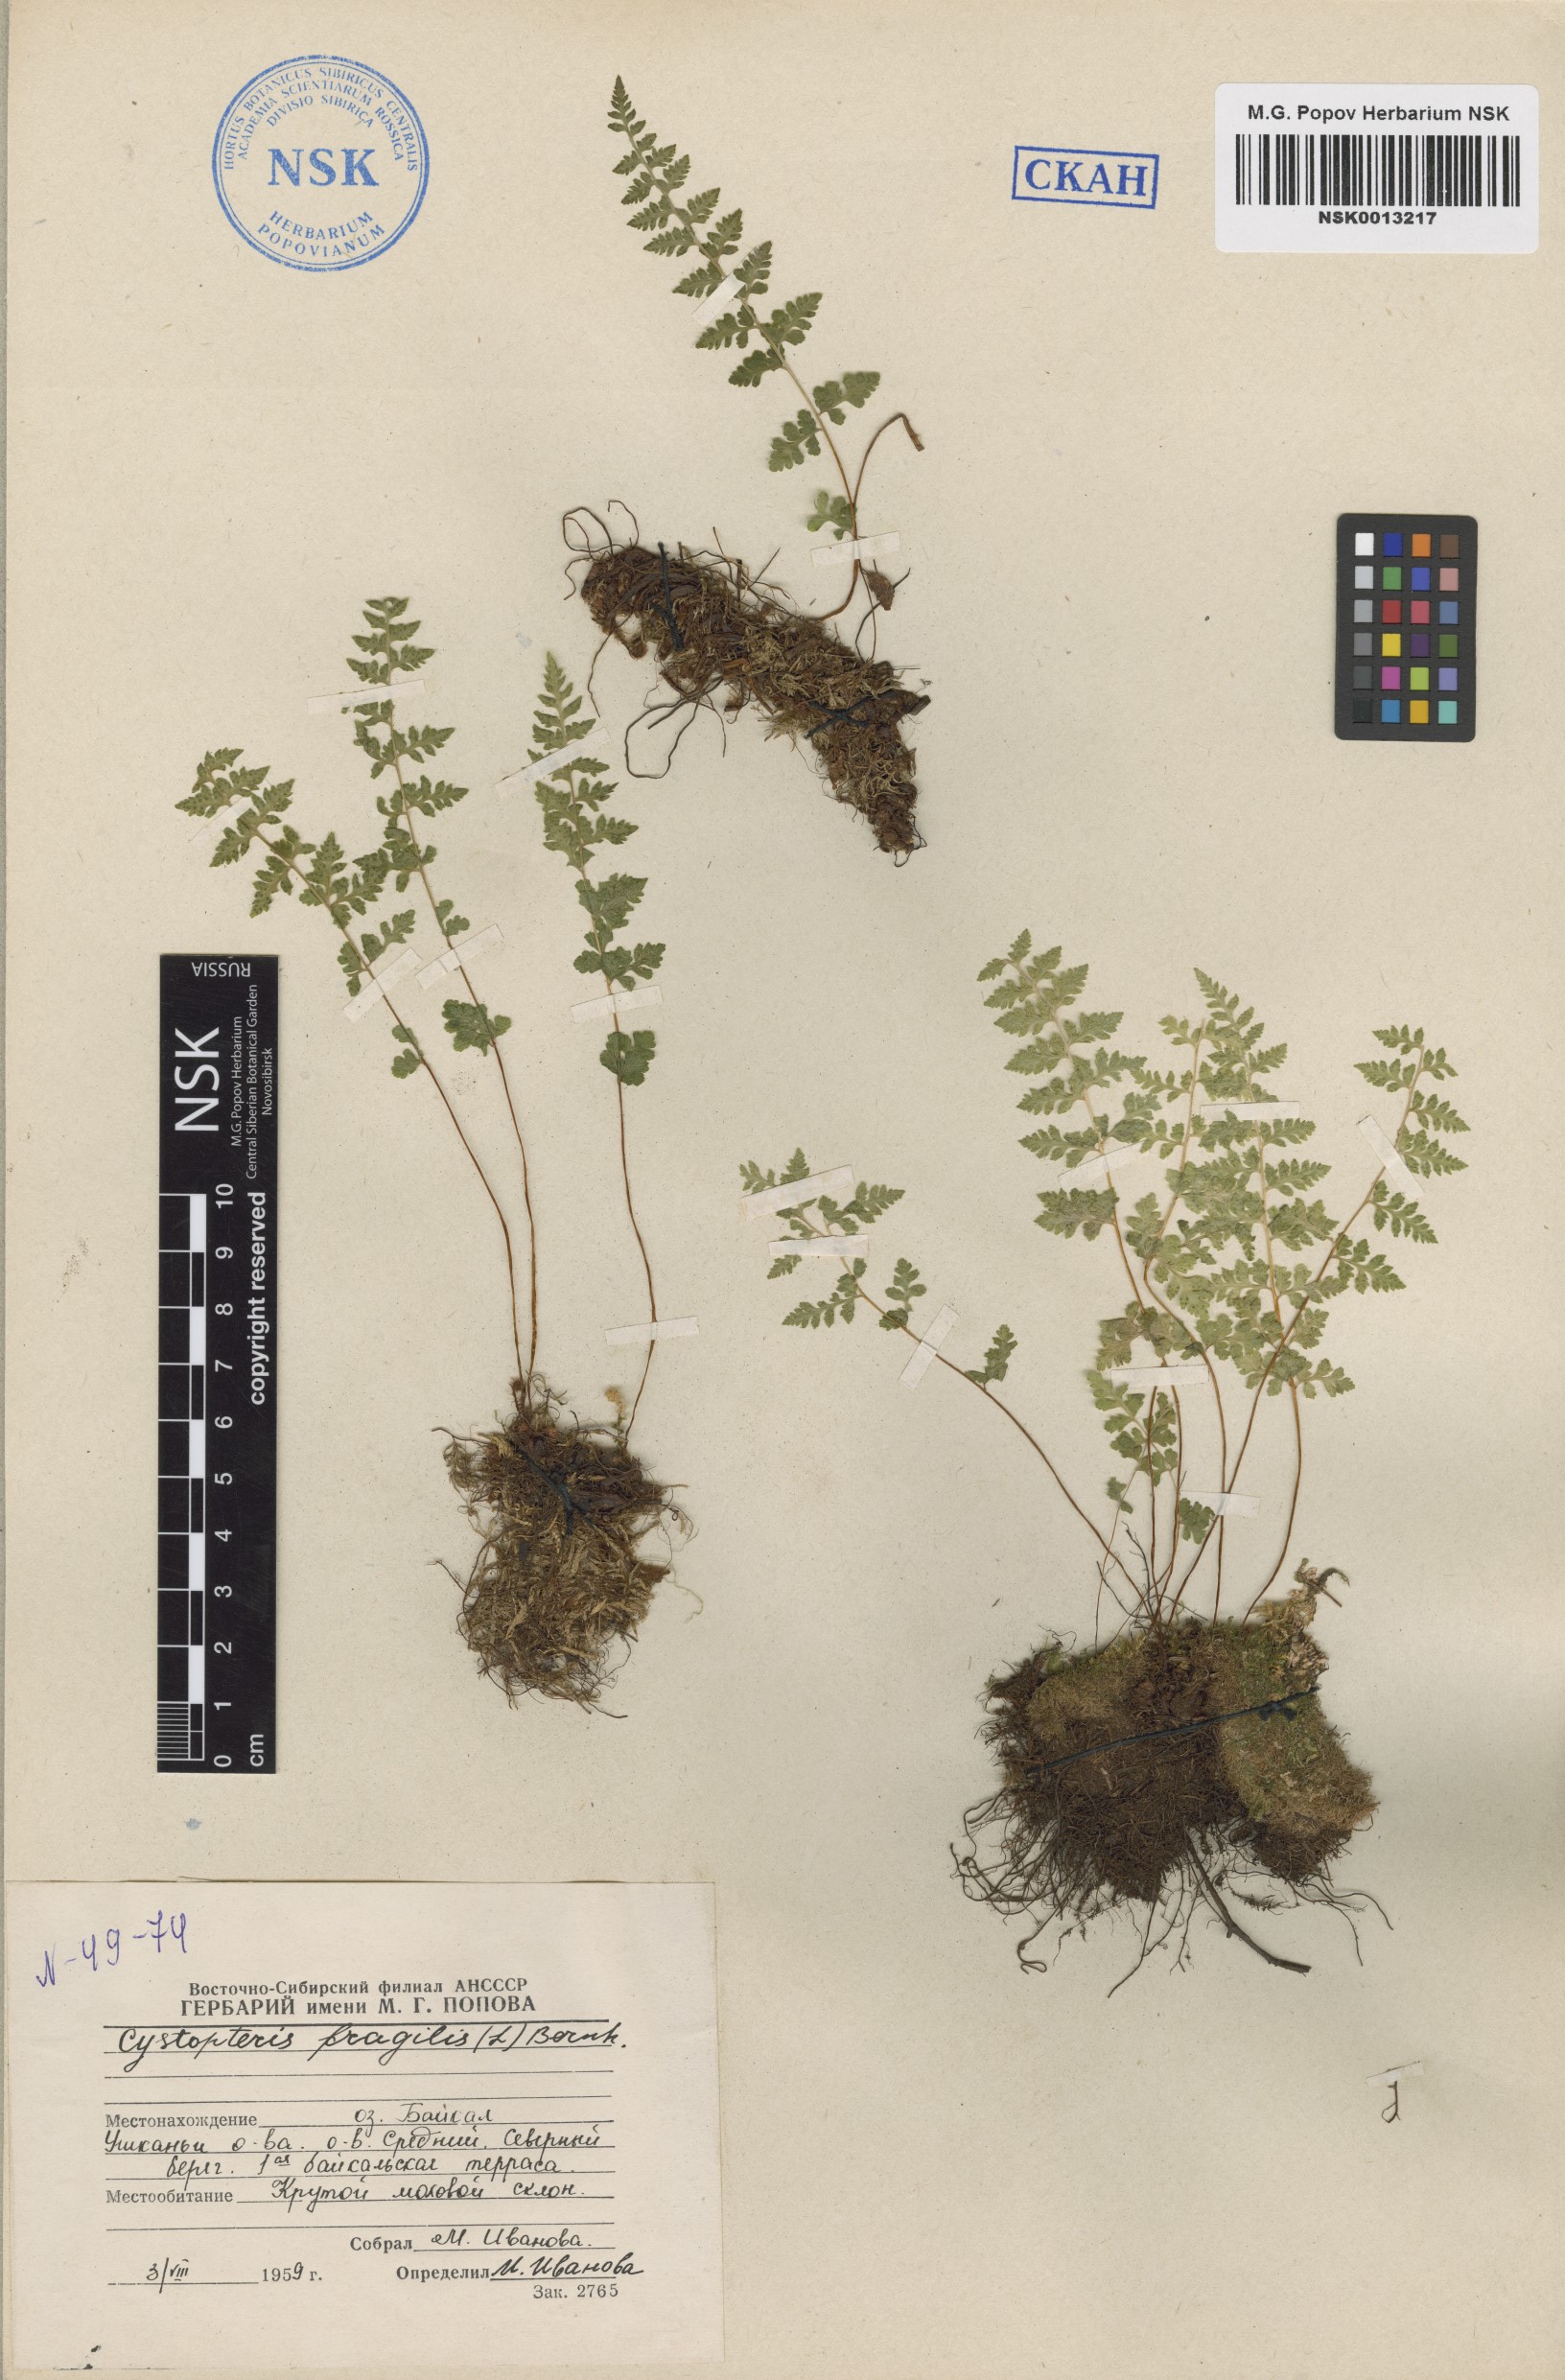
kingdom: Plantae
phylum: Tracheophyta
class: Polypodiopsida
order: Polypodiales
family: Cystopteridaceae
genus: Cystopteris
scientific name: Cystopteris fragilis
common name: Brittle bladder fern
